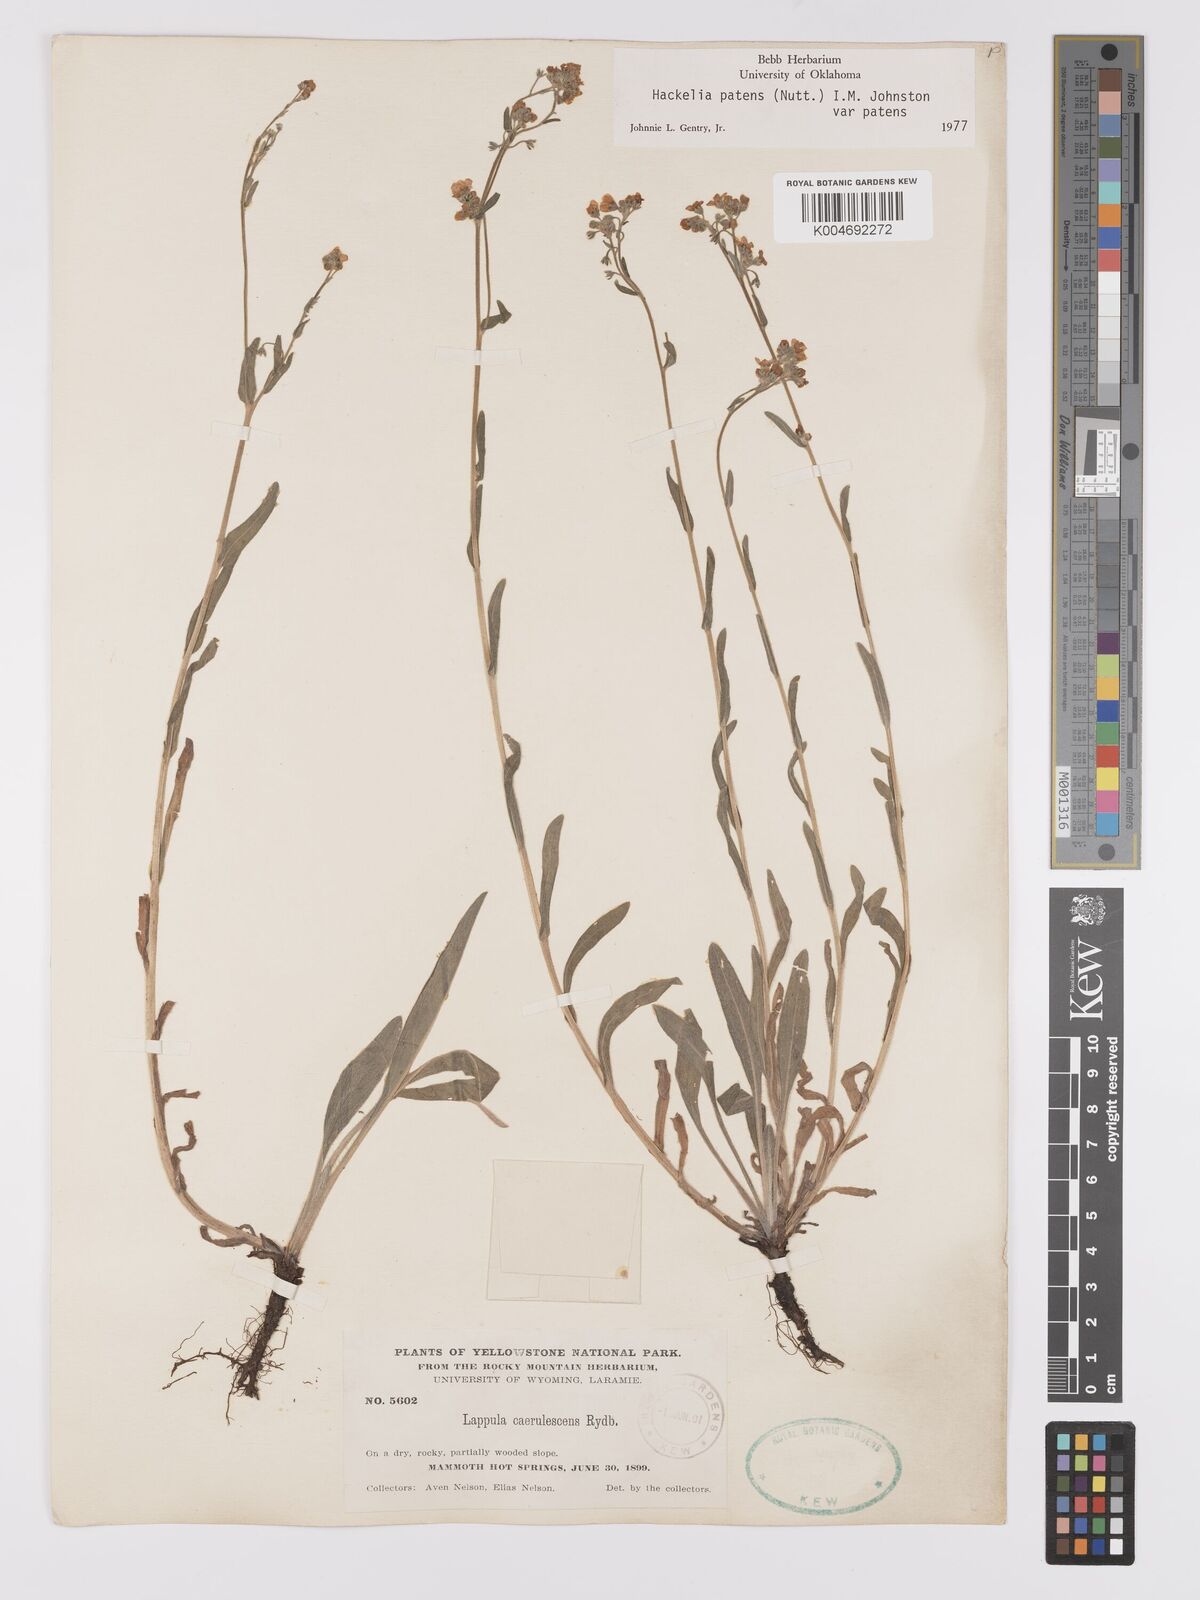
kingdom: Plantae
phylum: Tracheophyta
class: Magnoliopsida
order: Boraginales
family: Boraginaceae
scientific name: Boraginaceae
